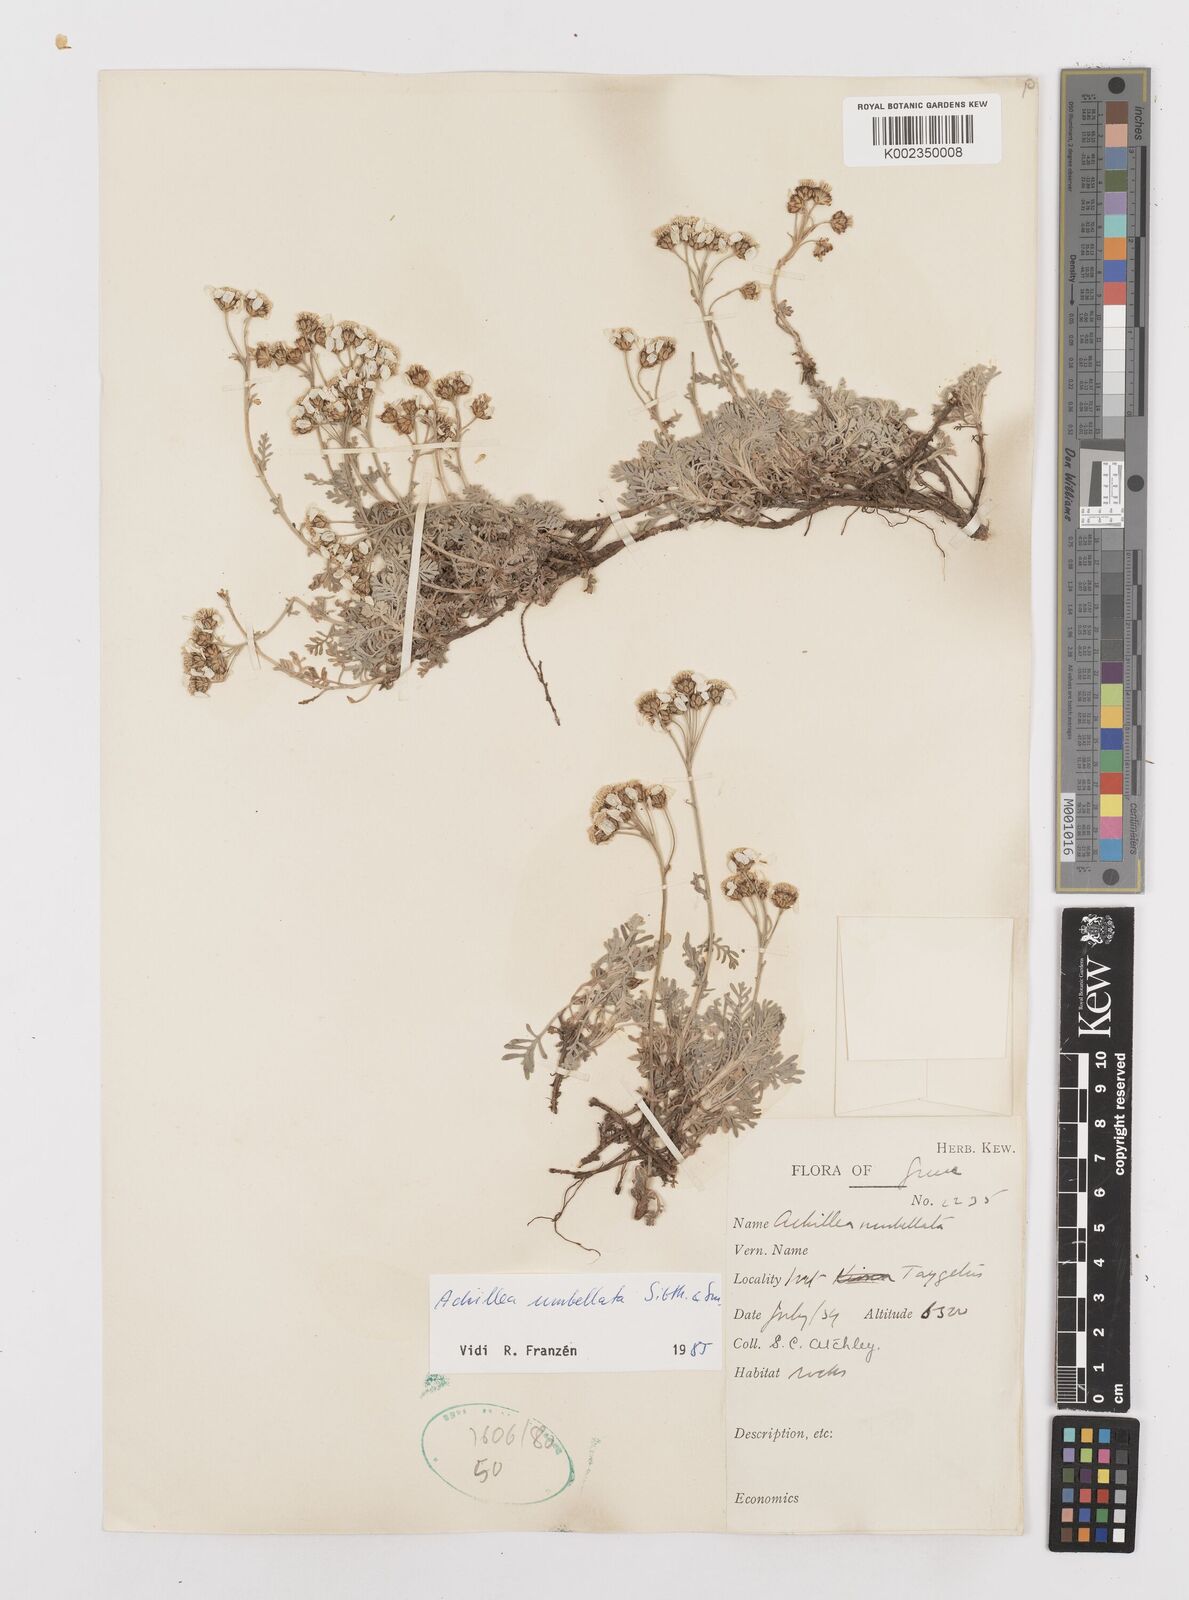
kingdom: Plantae
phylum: Tracheophyta
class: Magnoliopsida
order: Asterales
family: Asteraceae
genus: Achillea
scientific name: Achillea umbellata
